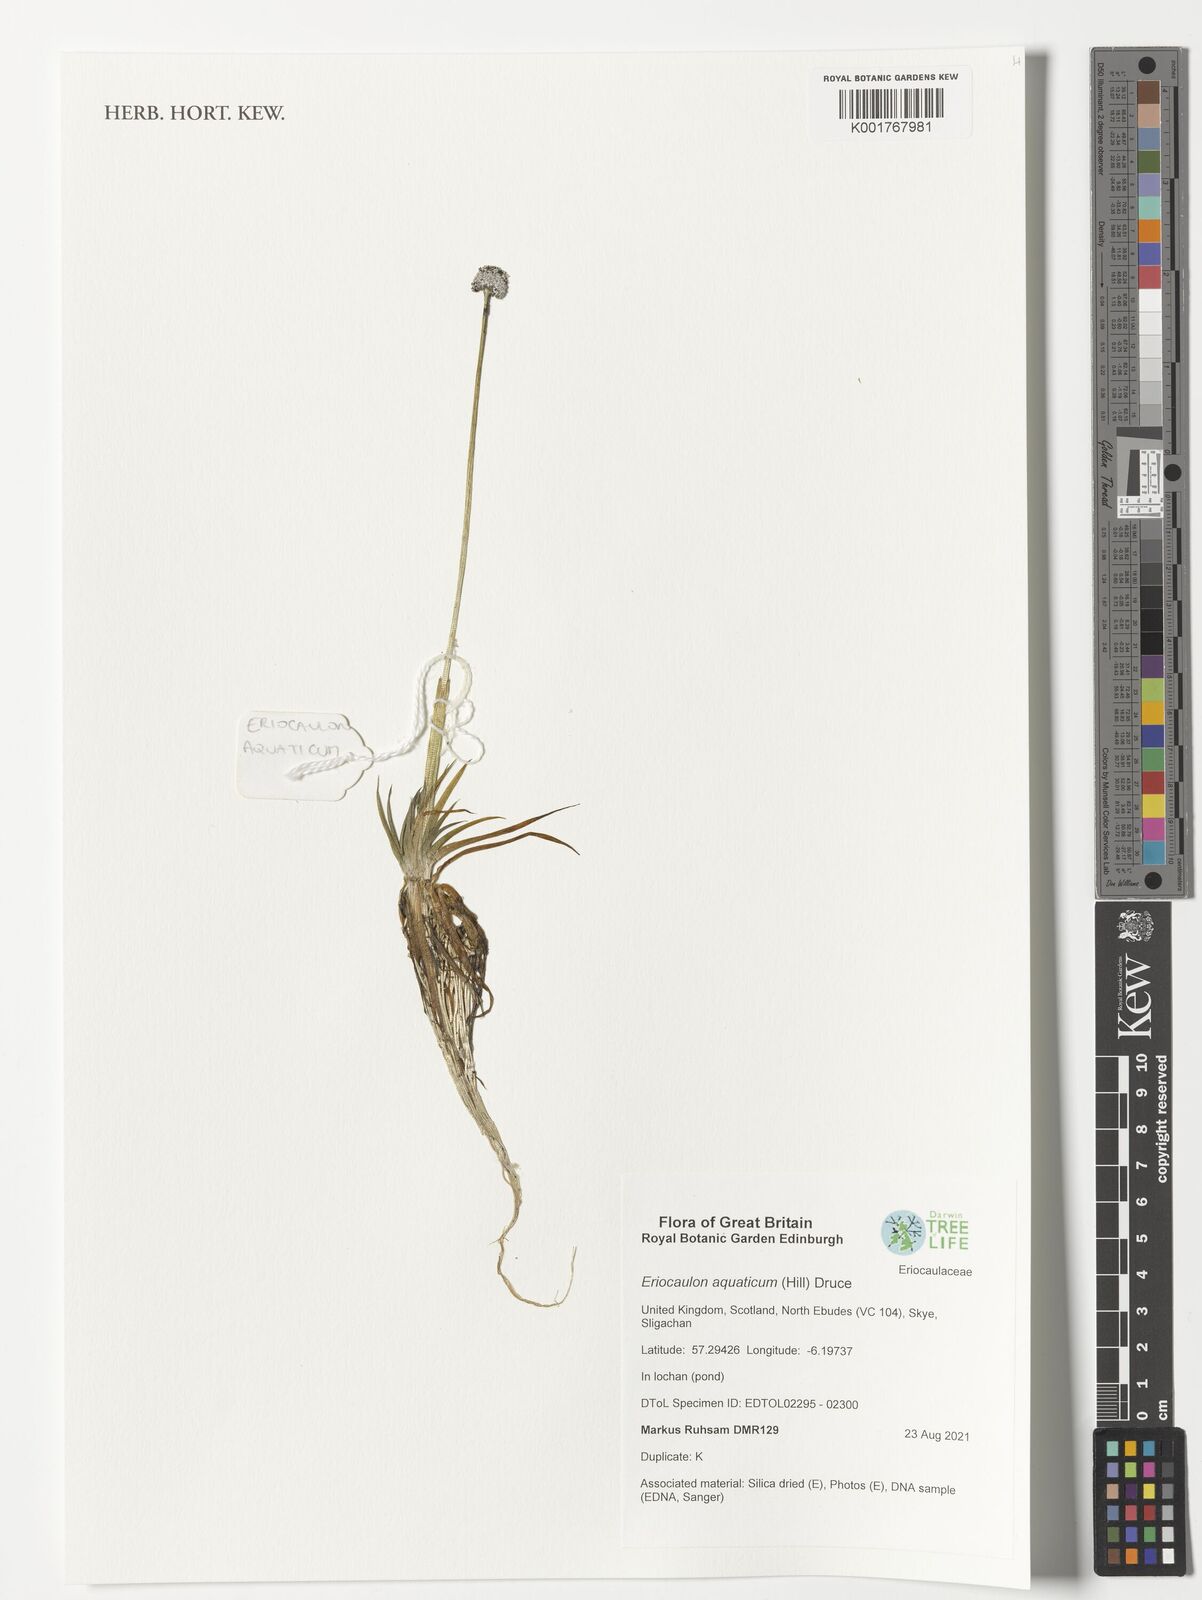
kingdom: Plantae
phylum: Tracheophyta
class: Liliopsida
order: Poales
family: Eriocaulaceae
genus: Eriocaulon
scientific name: Eriocaulon aquaticum
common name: Pipewort
